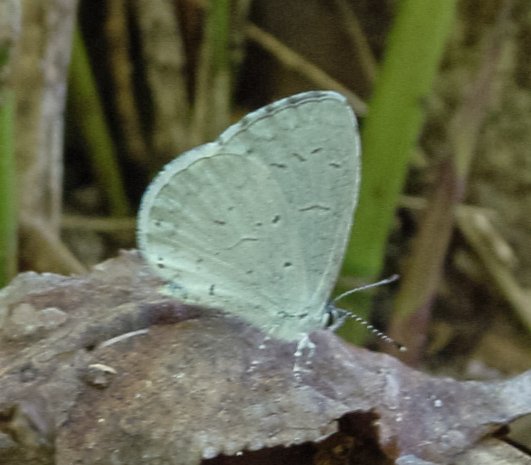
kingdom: Animalia
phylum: Arthropoda
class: Insecta
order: Lepidoptera
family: Lycaenidae
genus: Celastrina
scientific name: Celastrina ladon
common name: Spring Azure
